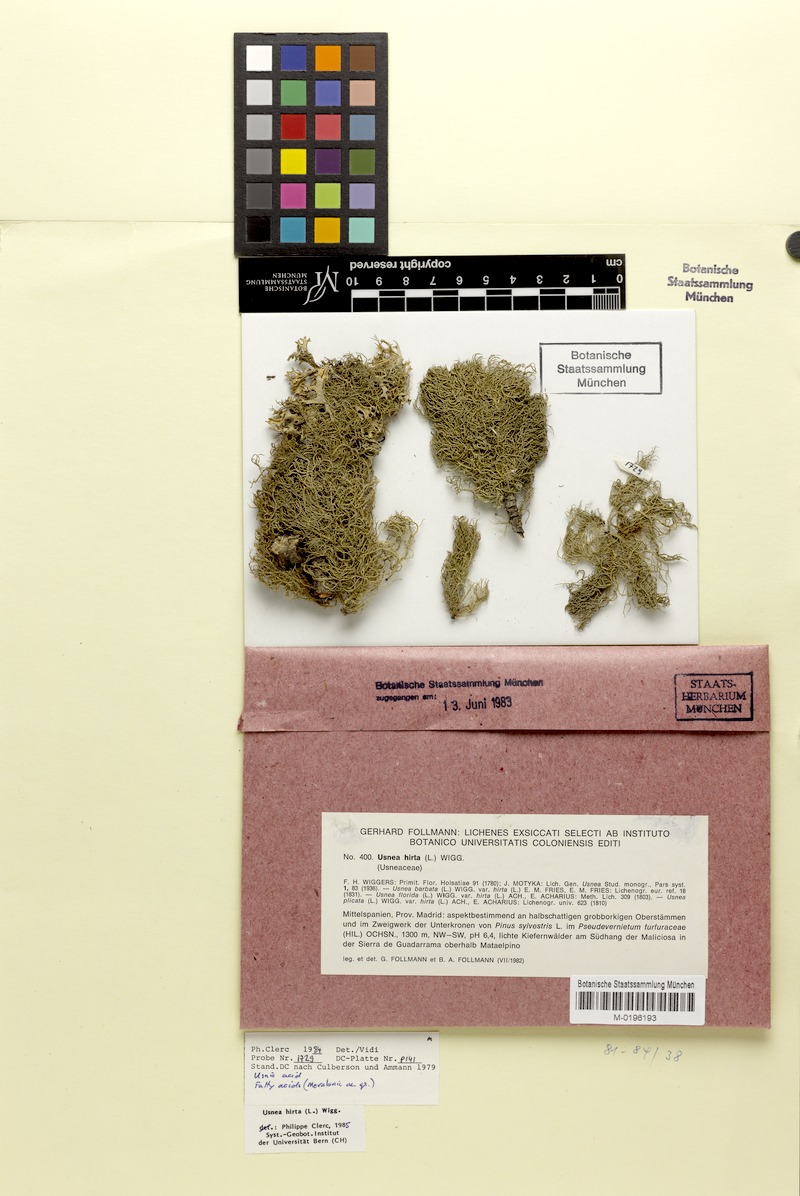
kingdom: Fungi
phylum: Ascomycota
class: Lecanoromycetes
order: Lecanorales
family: Parmeliaceae
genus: Usnea
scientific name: Usnea hirta
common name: Bristly beard lichen
